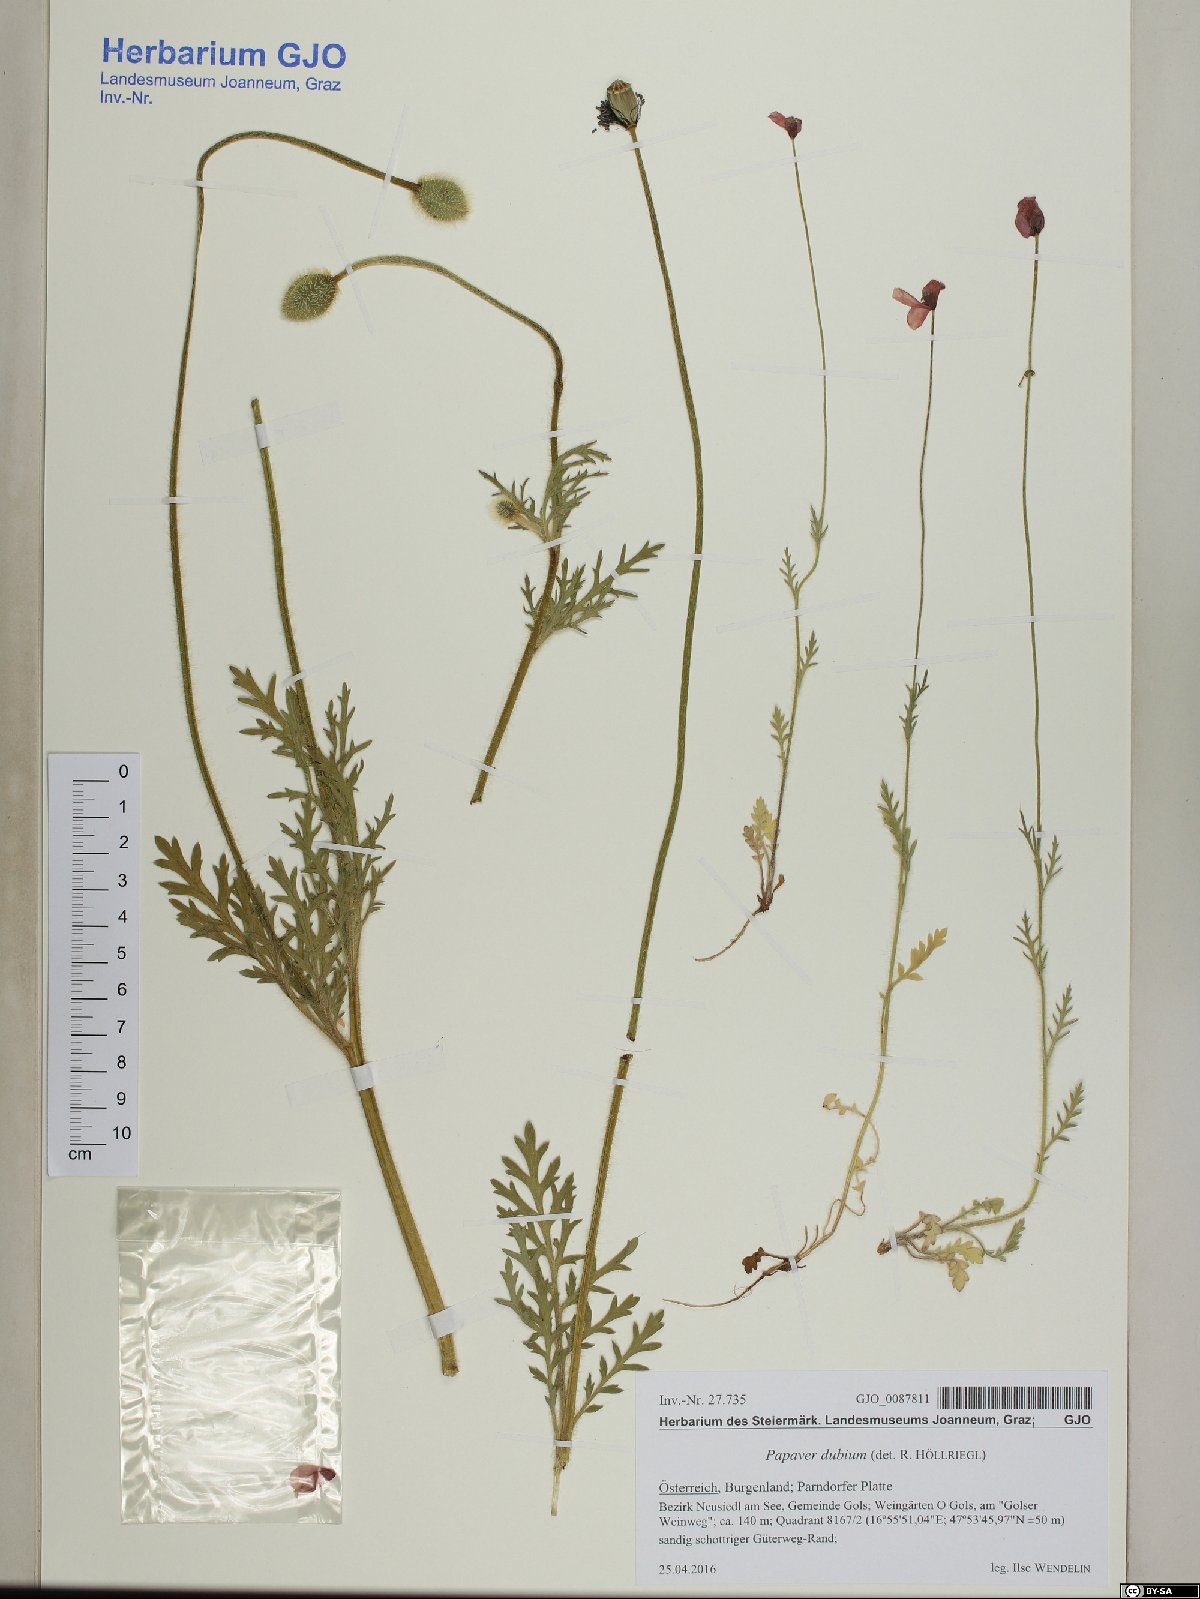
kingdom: Plantae
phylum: Tracheophyta
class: Magnoliopsida
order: Ranunculales
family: Papaveraceae
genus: Papaver
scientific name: Papaver dubium
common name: Long-headed poppy
